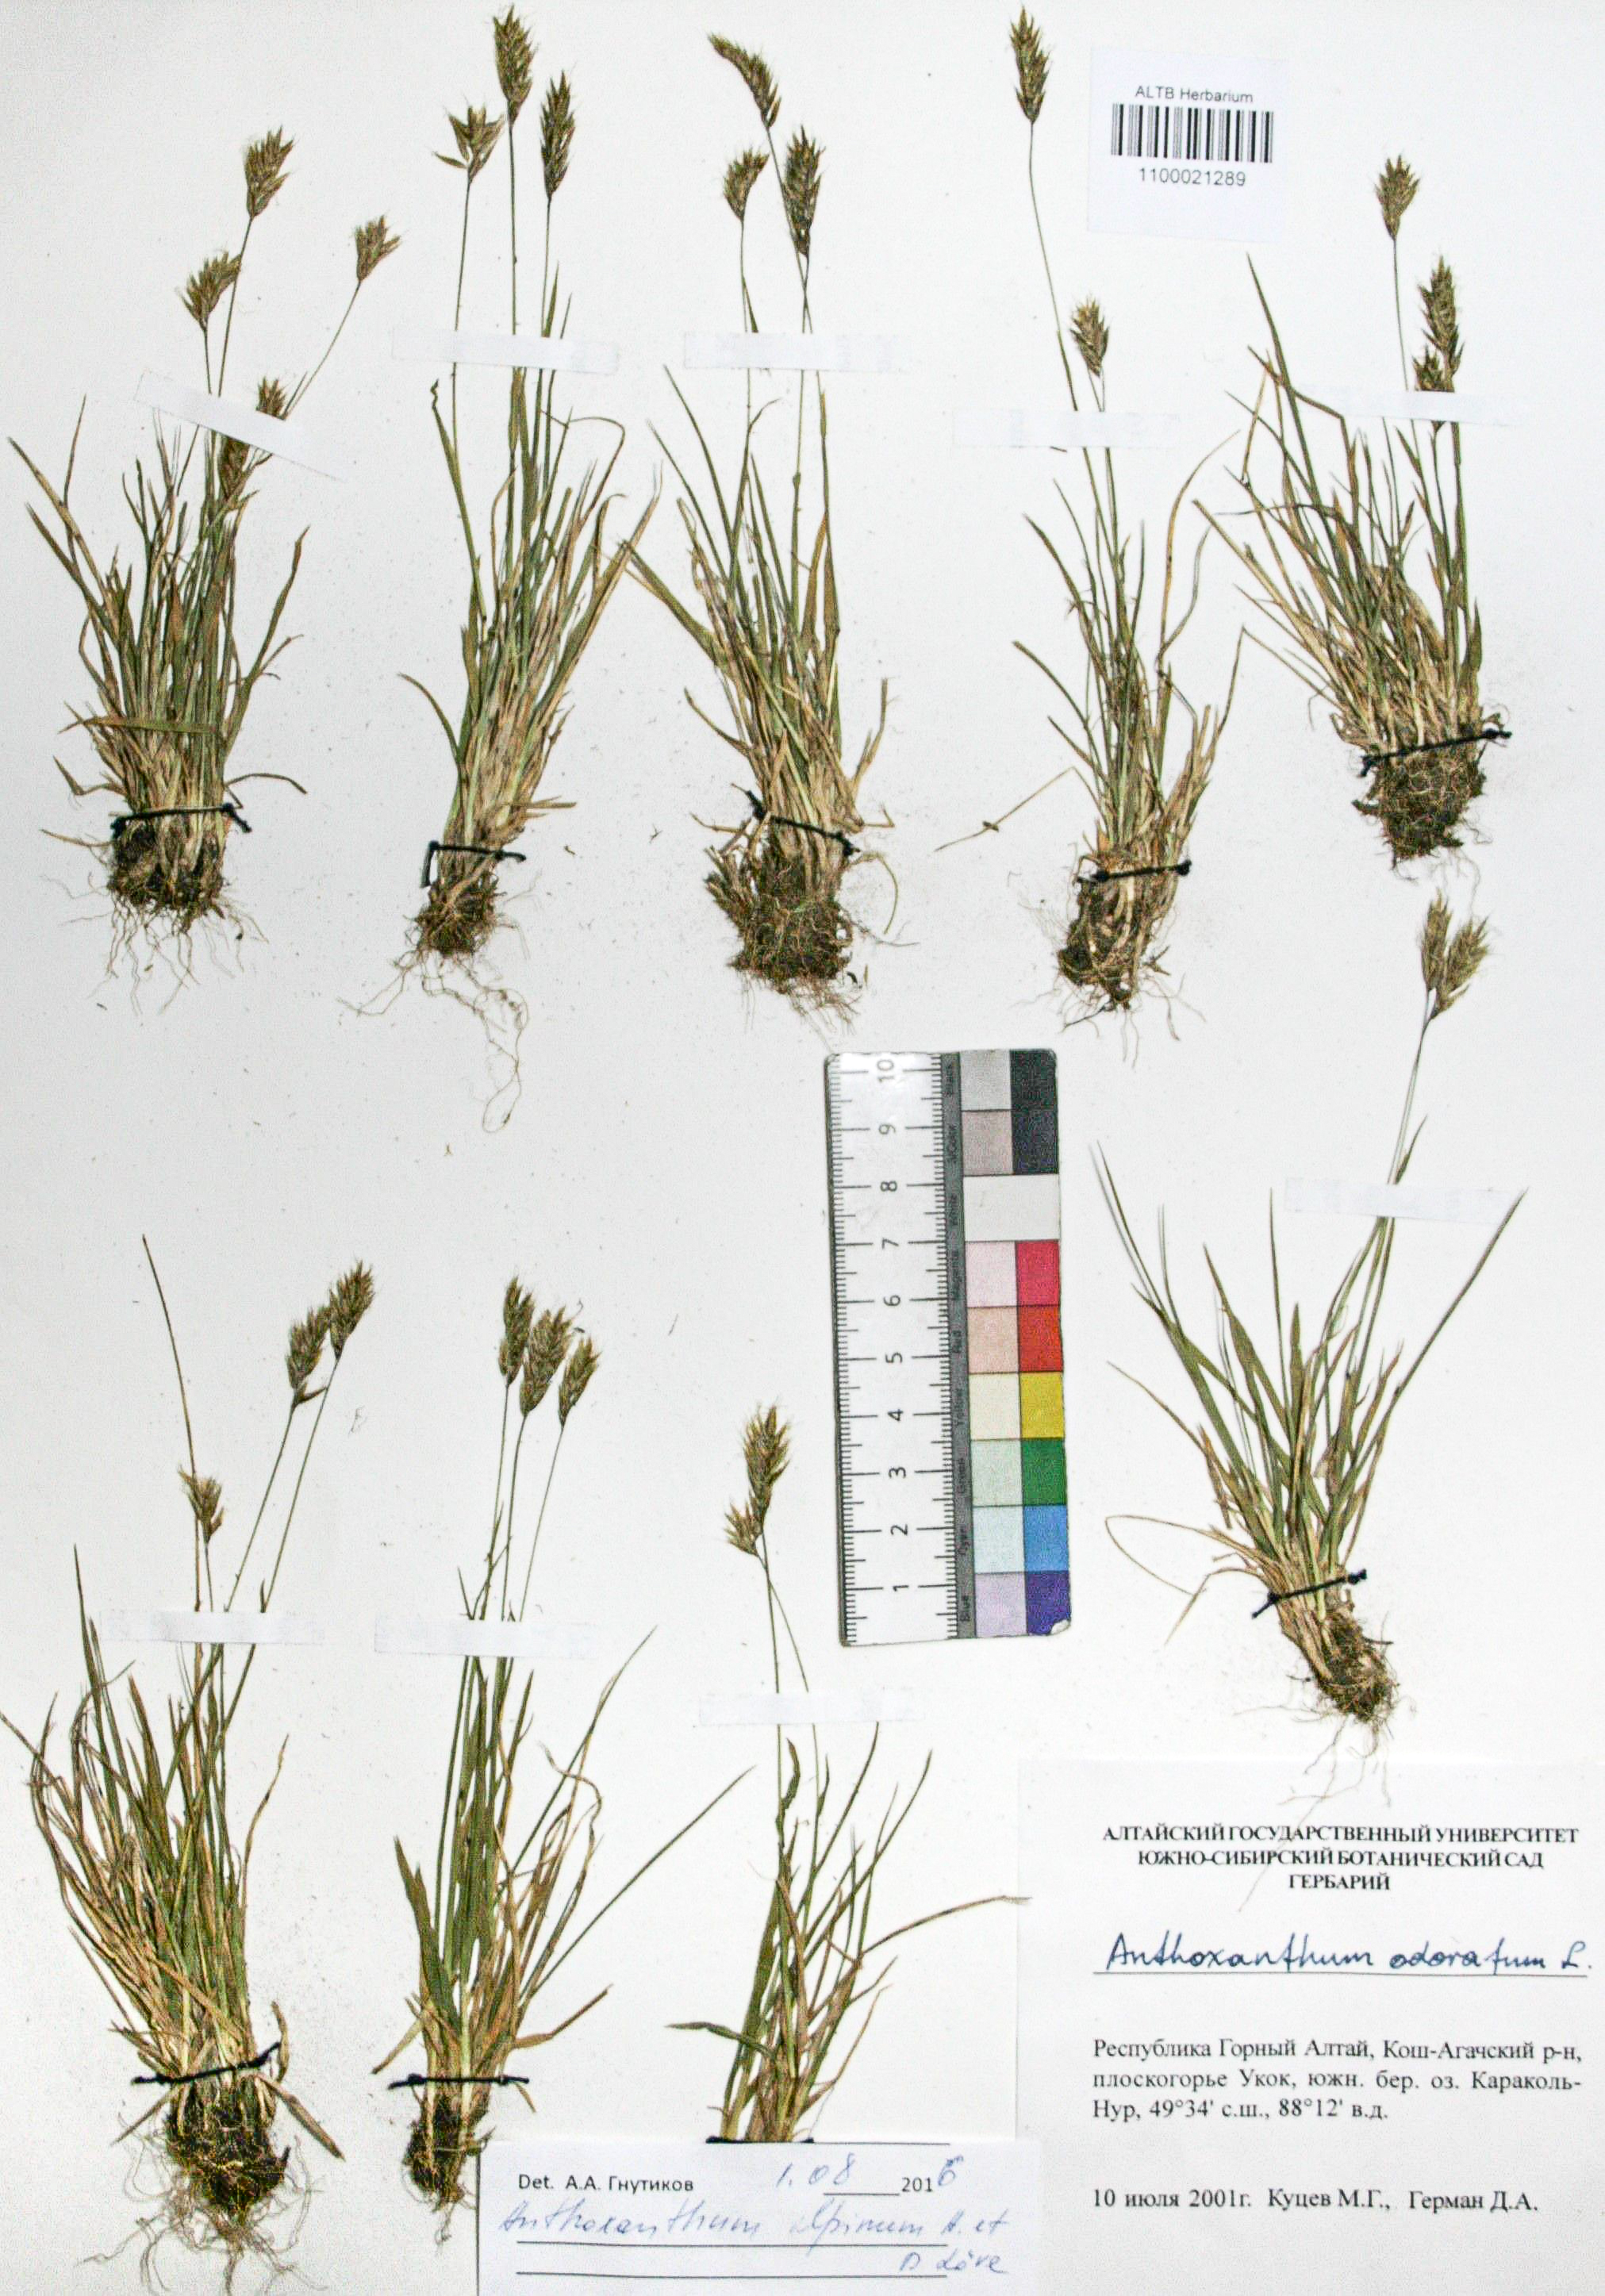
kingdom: Plantae
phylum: Tracheophyta
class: Liliopsida
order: Poales
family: Poaceae
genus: Anthoxanthum
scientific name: Anthoxanthum nipponicum
